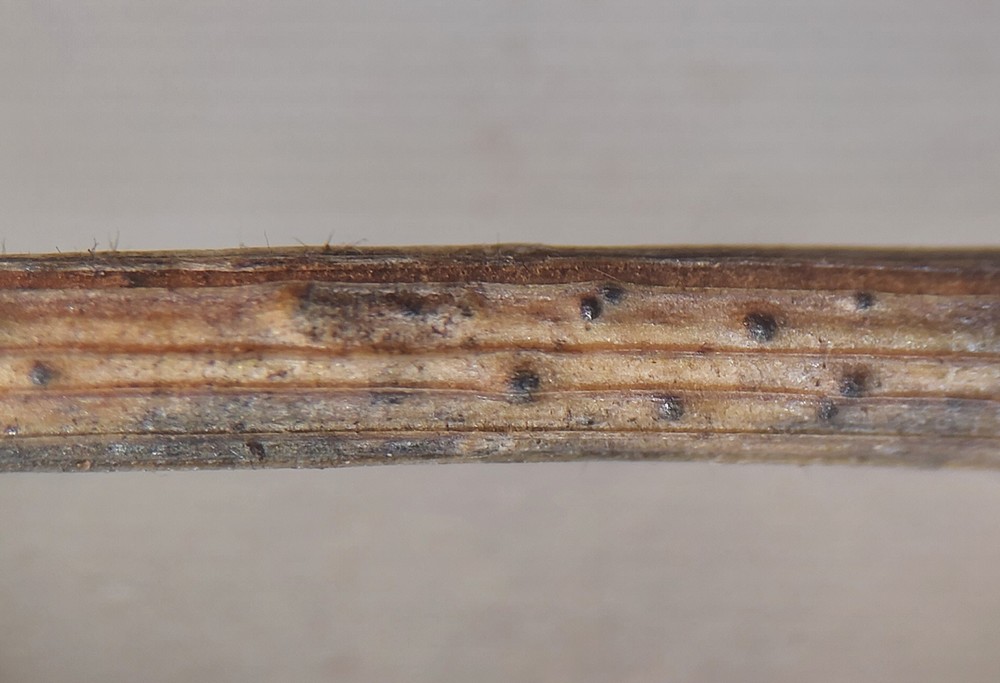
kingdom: Fungi
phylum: Ascomycota
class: Dothideomycetes
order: Pleosporales
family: Pleosporaceae
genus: Stemphylium
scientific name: Stemphylium vesicarium
